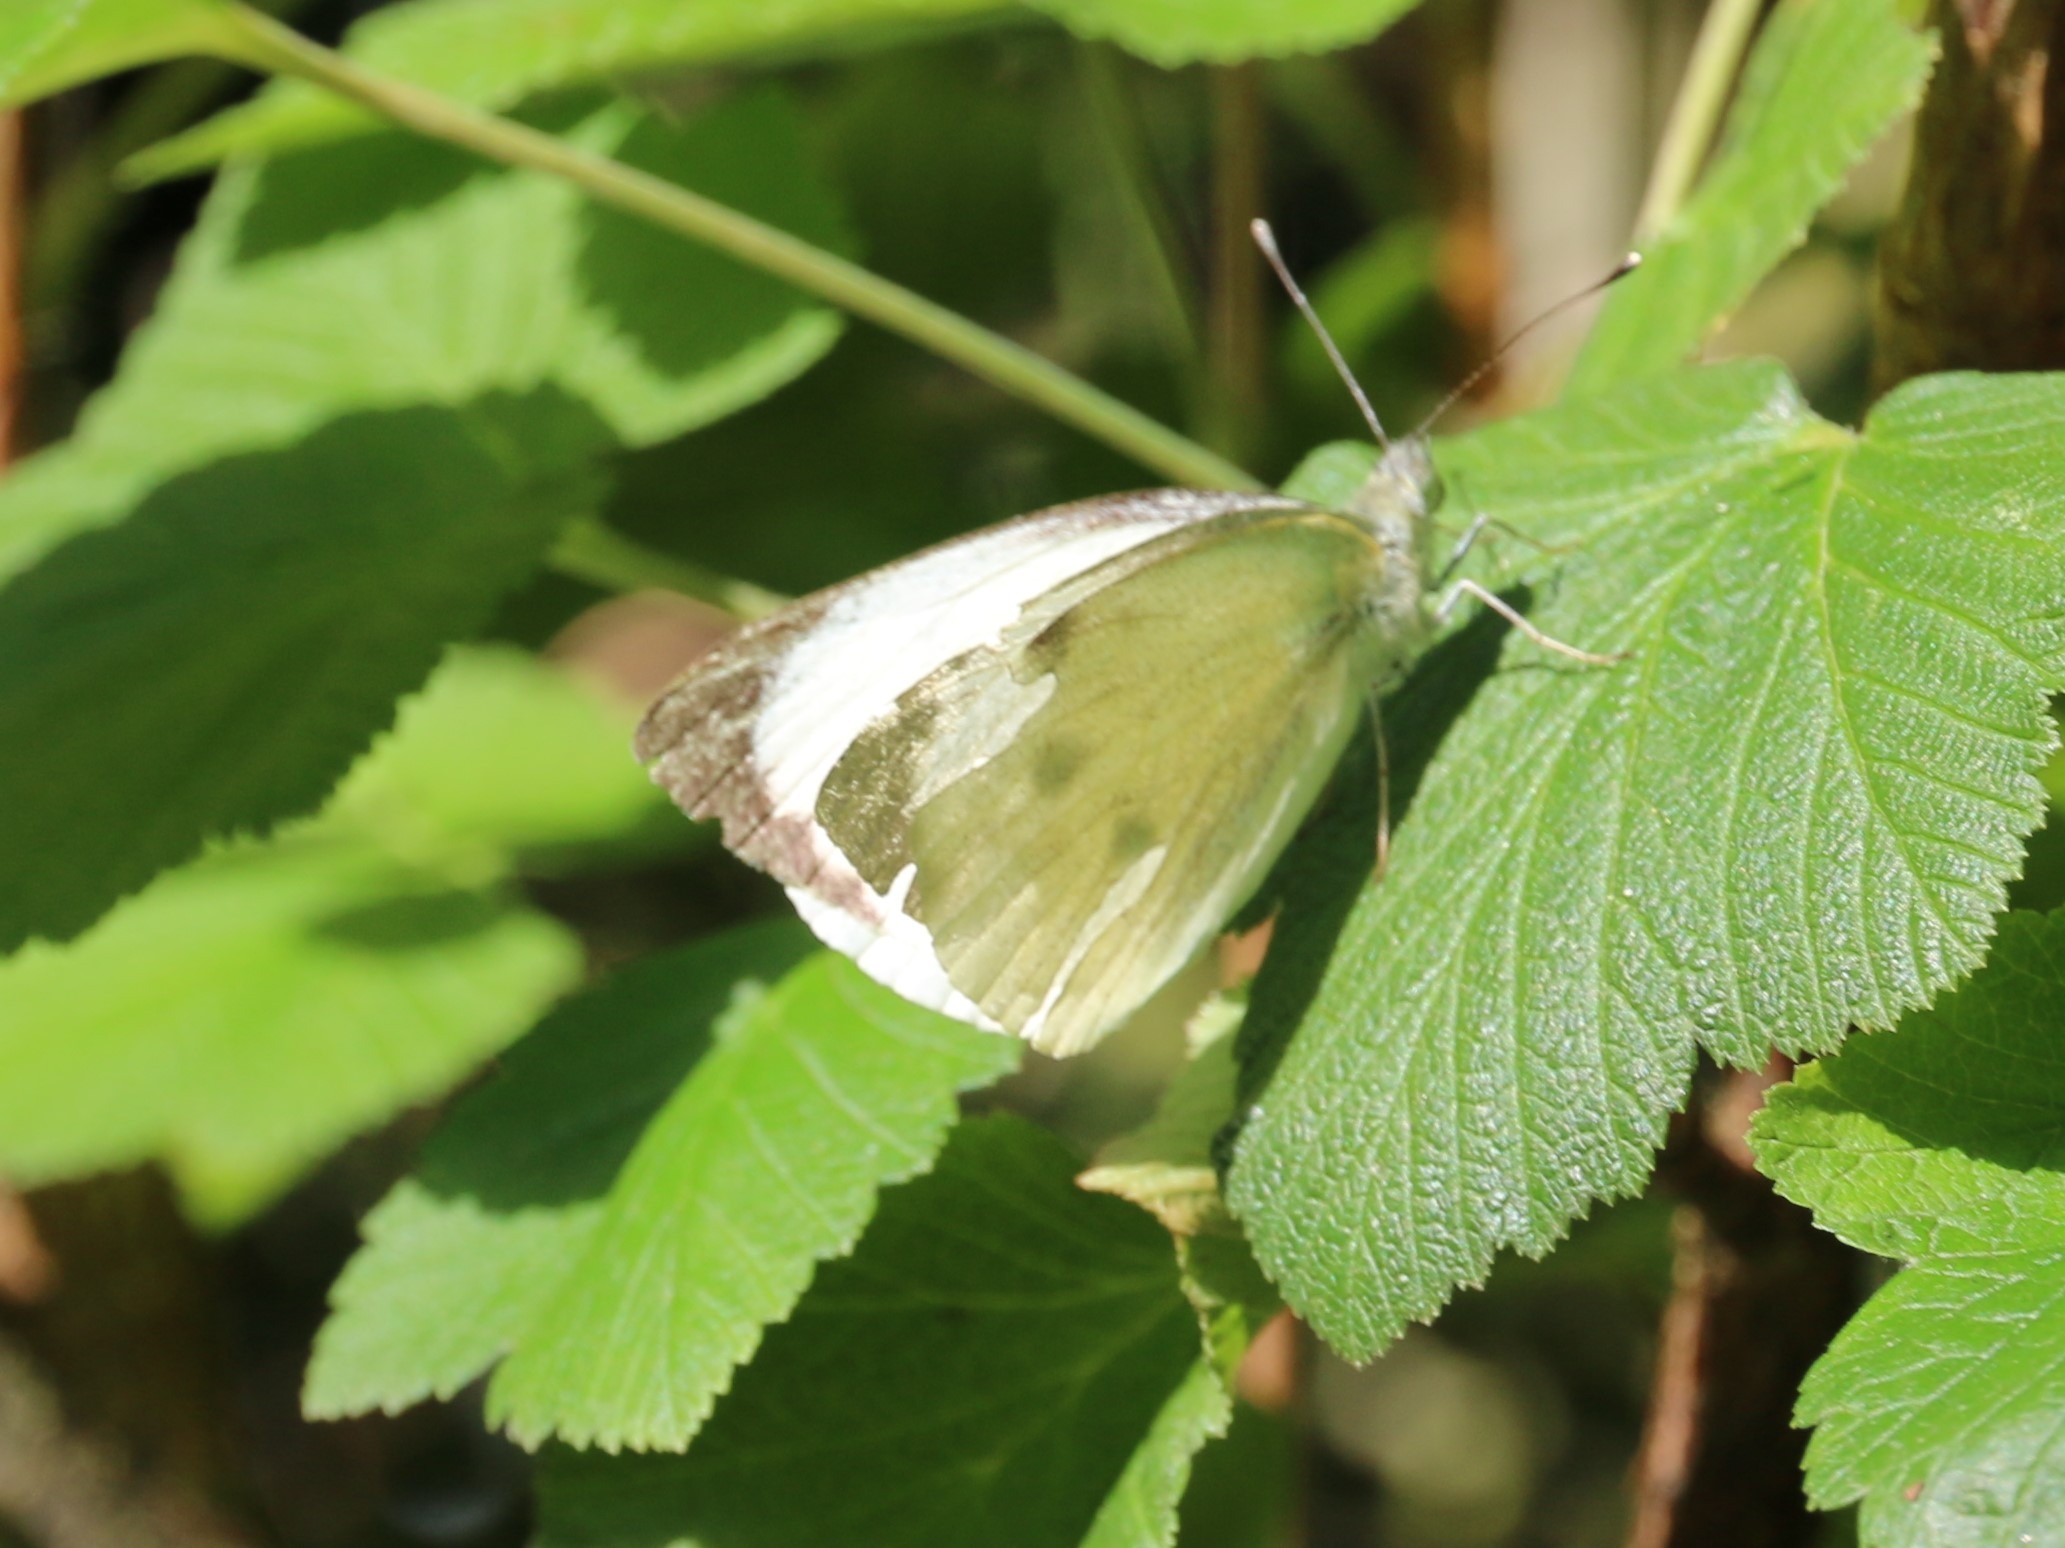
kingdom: Animalia
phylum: Arthropoda
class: Insecta
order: Lepidoptera
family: Pieridae
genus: Pieris
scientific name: Pieris brassicae
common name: Stor kålsommerfugl
